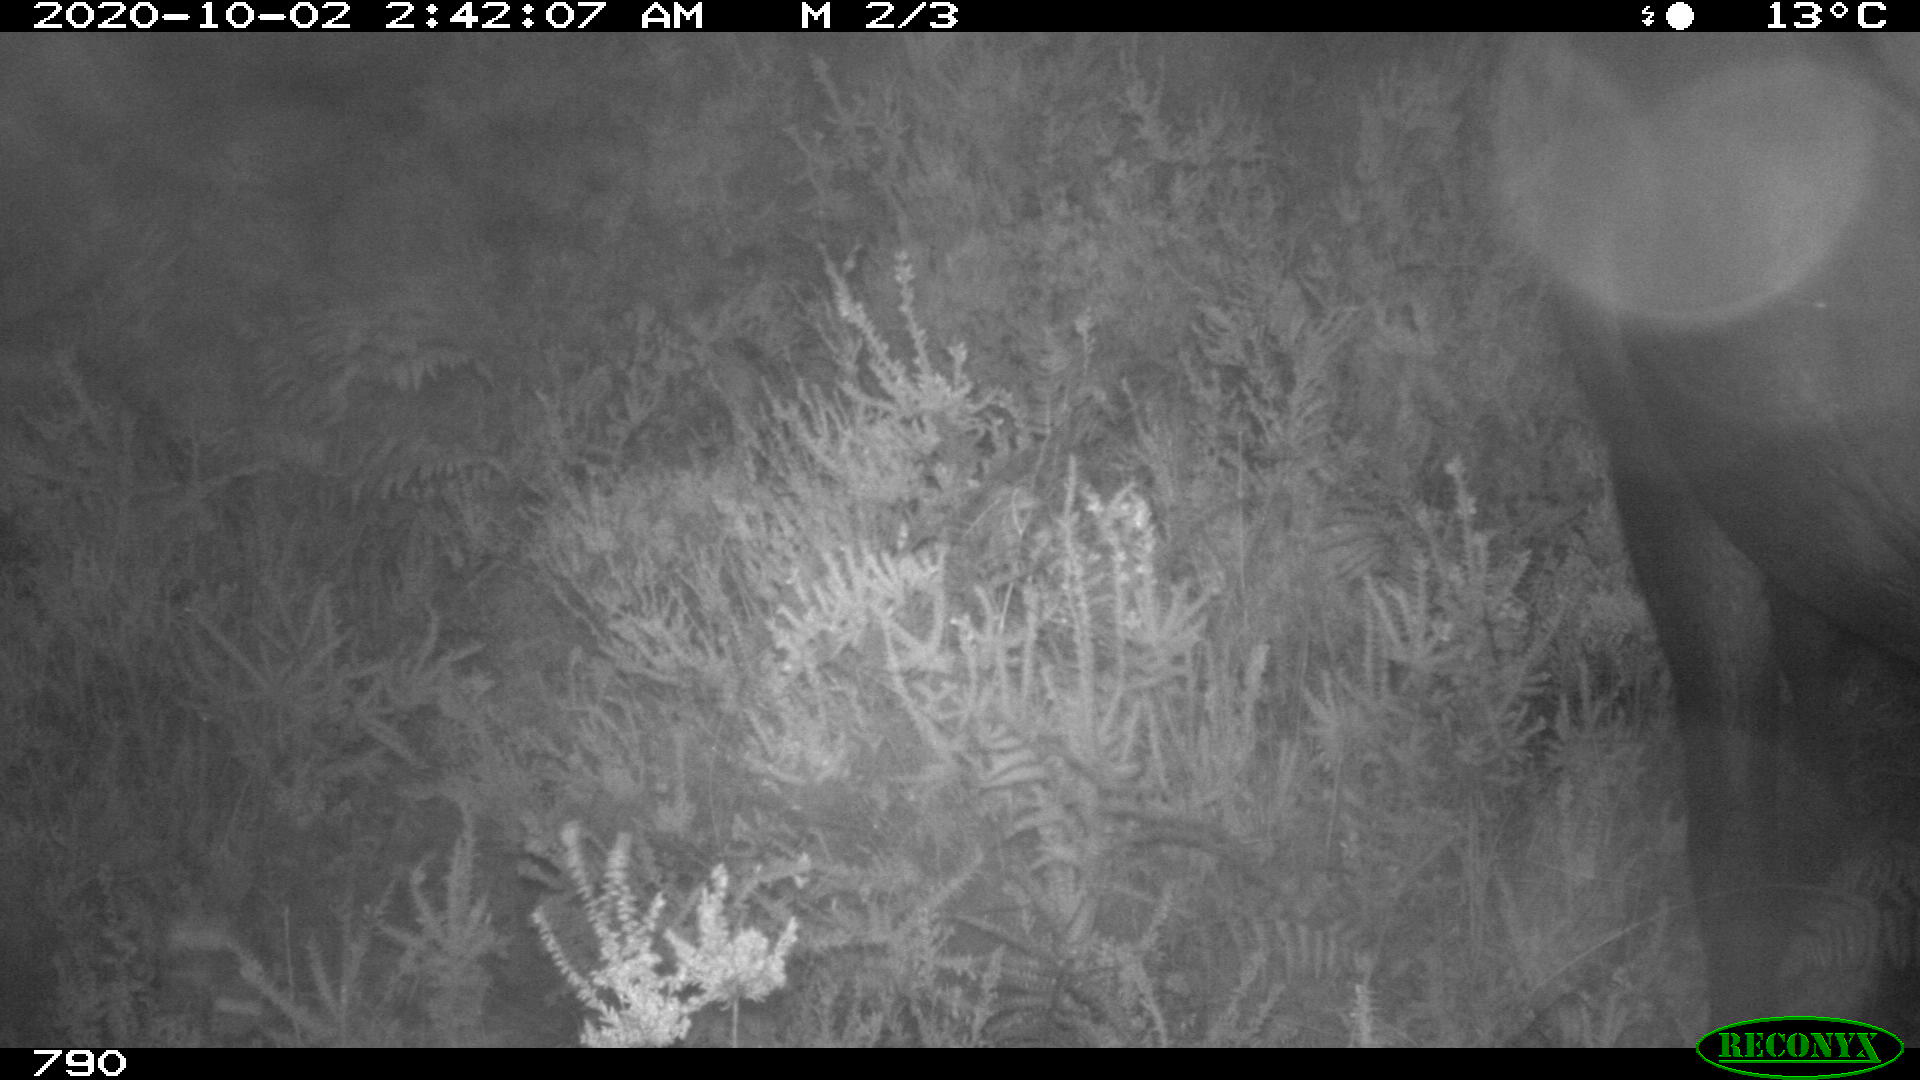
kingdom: Animalia
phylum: Chordata
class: Mammalia
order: Perissodactyla
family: Equidae
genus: Equus
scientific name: Equus caballus
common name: Horse
